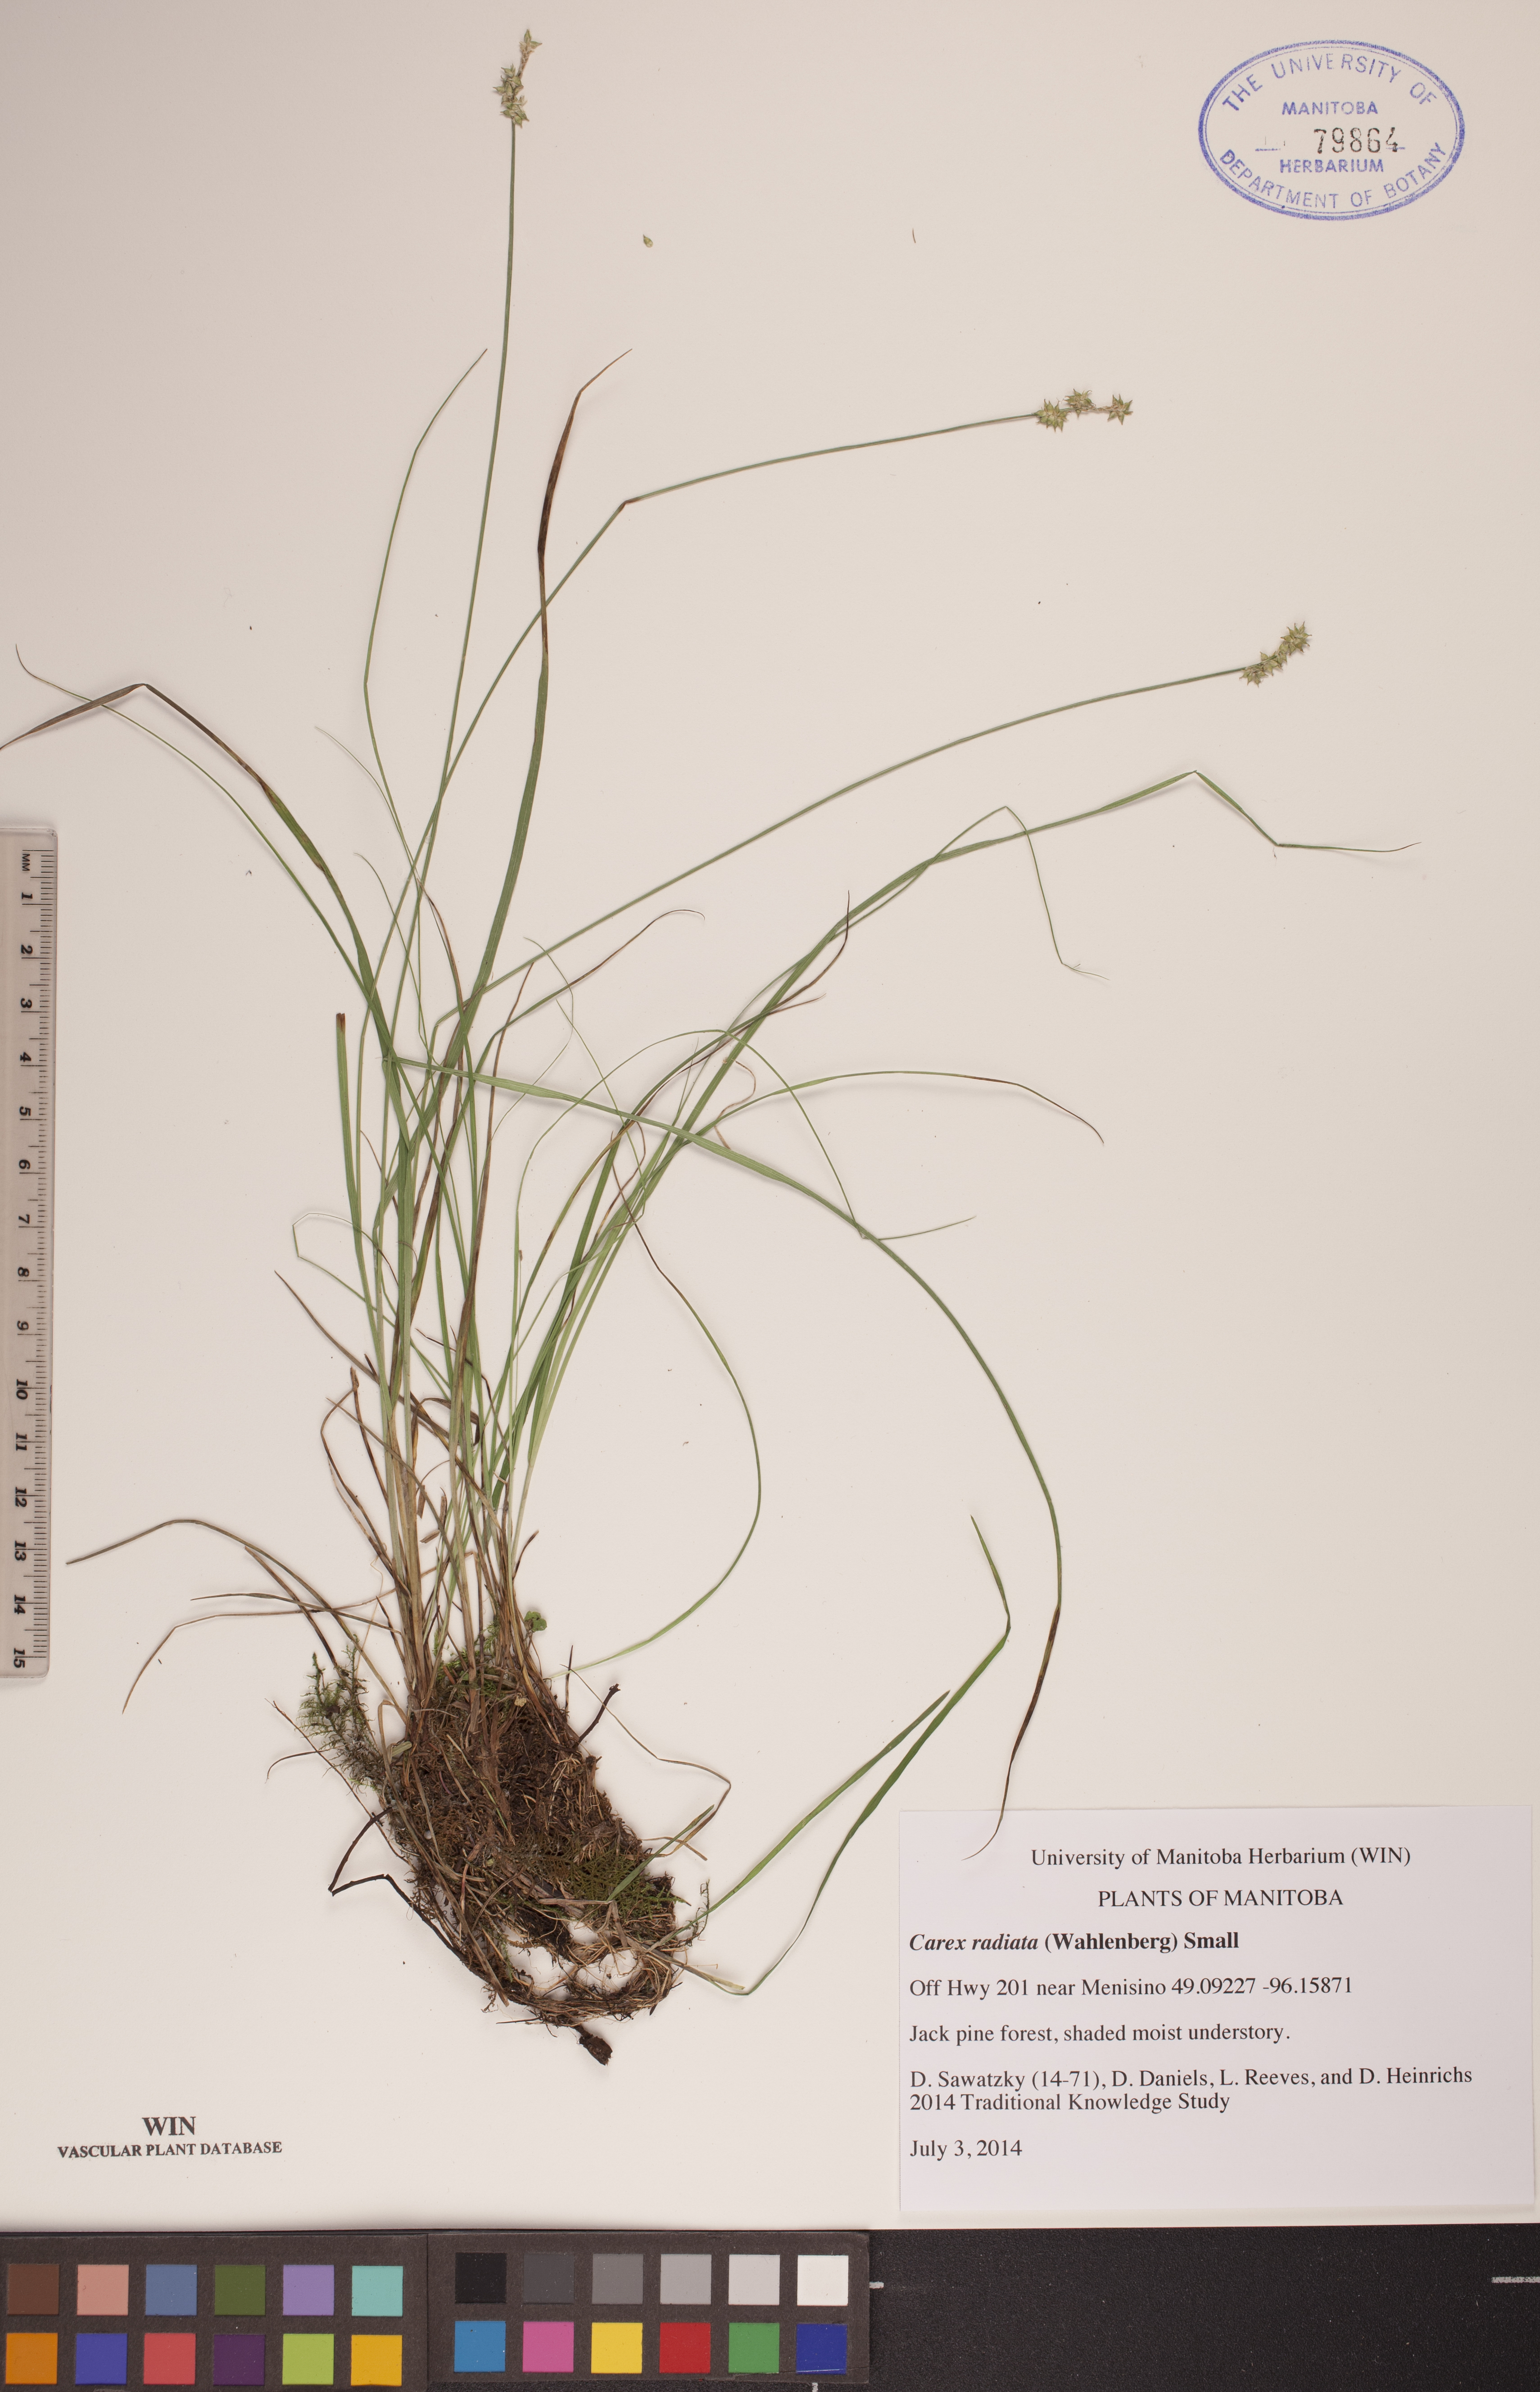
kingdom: Plantae
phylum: Tracheophyta
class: Liliopsida
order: Poales
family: Cyperaceae
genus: Carex
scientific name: Carex radiata
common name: Eastern star sedge
